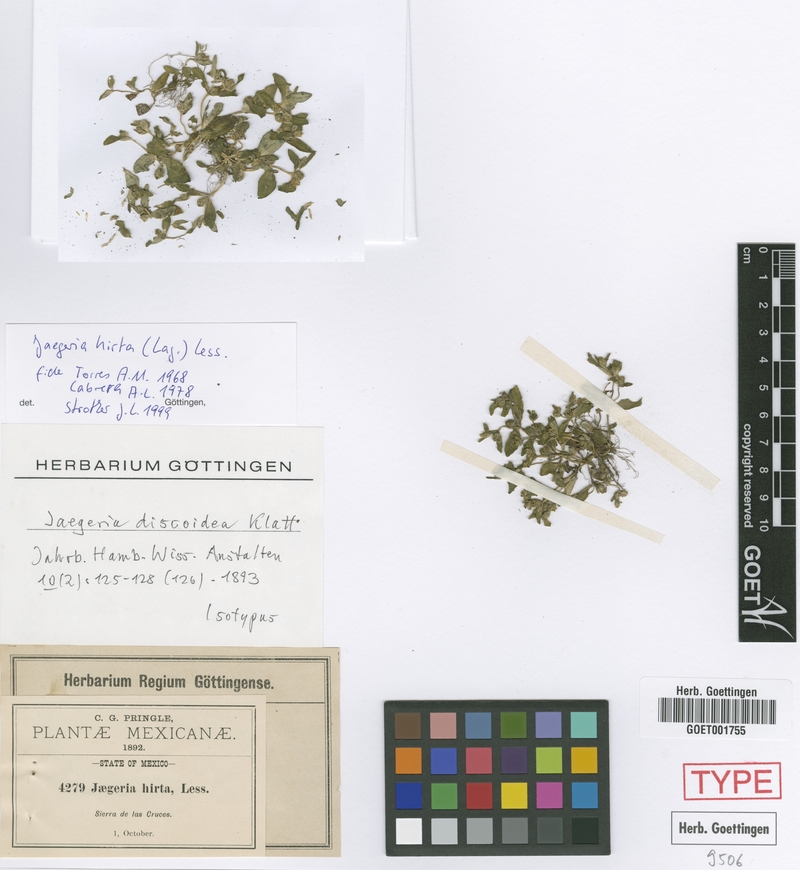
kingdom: Plantae
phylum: Tracheophyta
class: Magnoliopsida
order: Asterales
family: Asteraceae
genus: Jaegeria
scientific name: Jaegeria hirta
